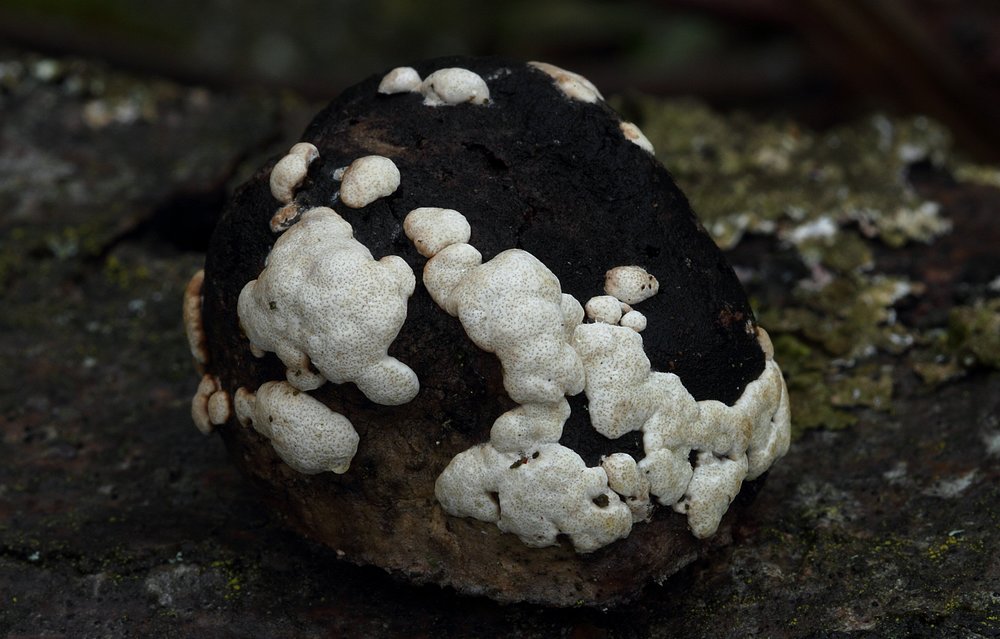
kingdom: Fungi
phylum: Ascomycota
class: Sordariomycetes
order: Hypocreales
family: Hypocreaceae
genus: Trichoderma
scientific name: Trichoderma pulvinatum
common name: snyltende kødkerne
